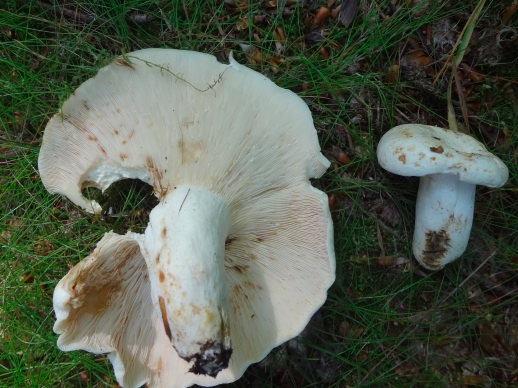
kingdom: Fungi
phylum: Basidiomycota
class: Agaricomycetes
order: Russulales
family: Russulaceae
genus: Lactifluus
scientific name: Lactifluus piperatus
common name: peber-mælkehat
